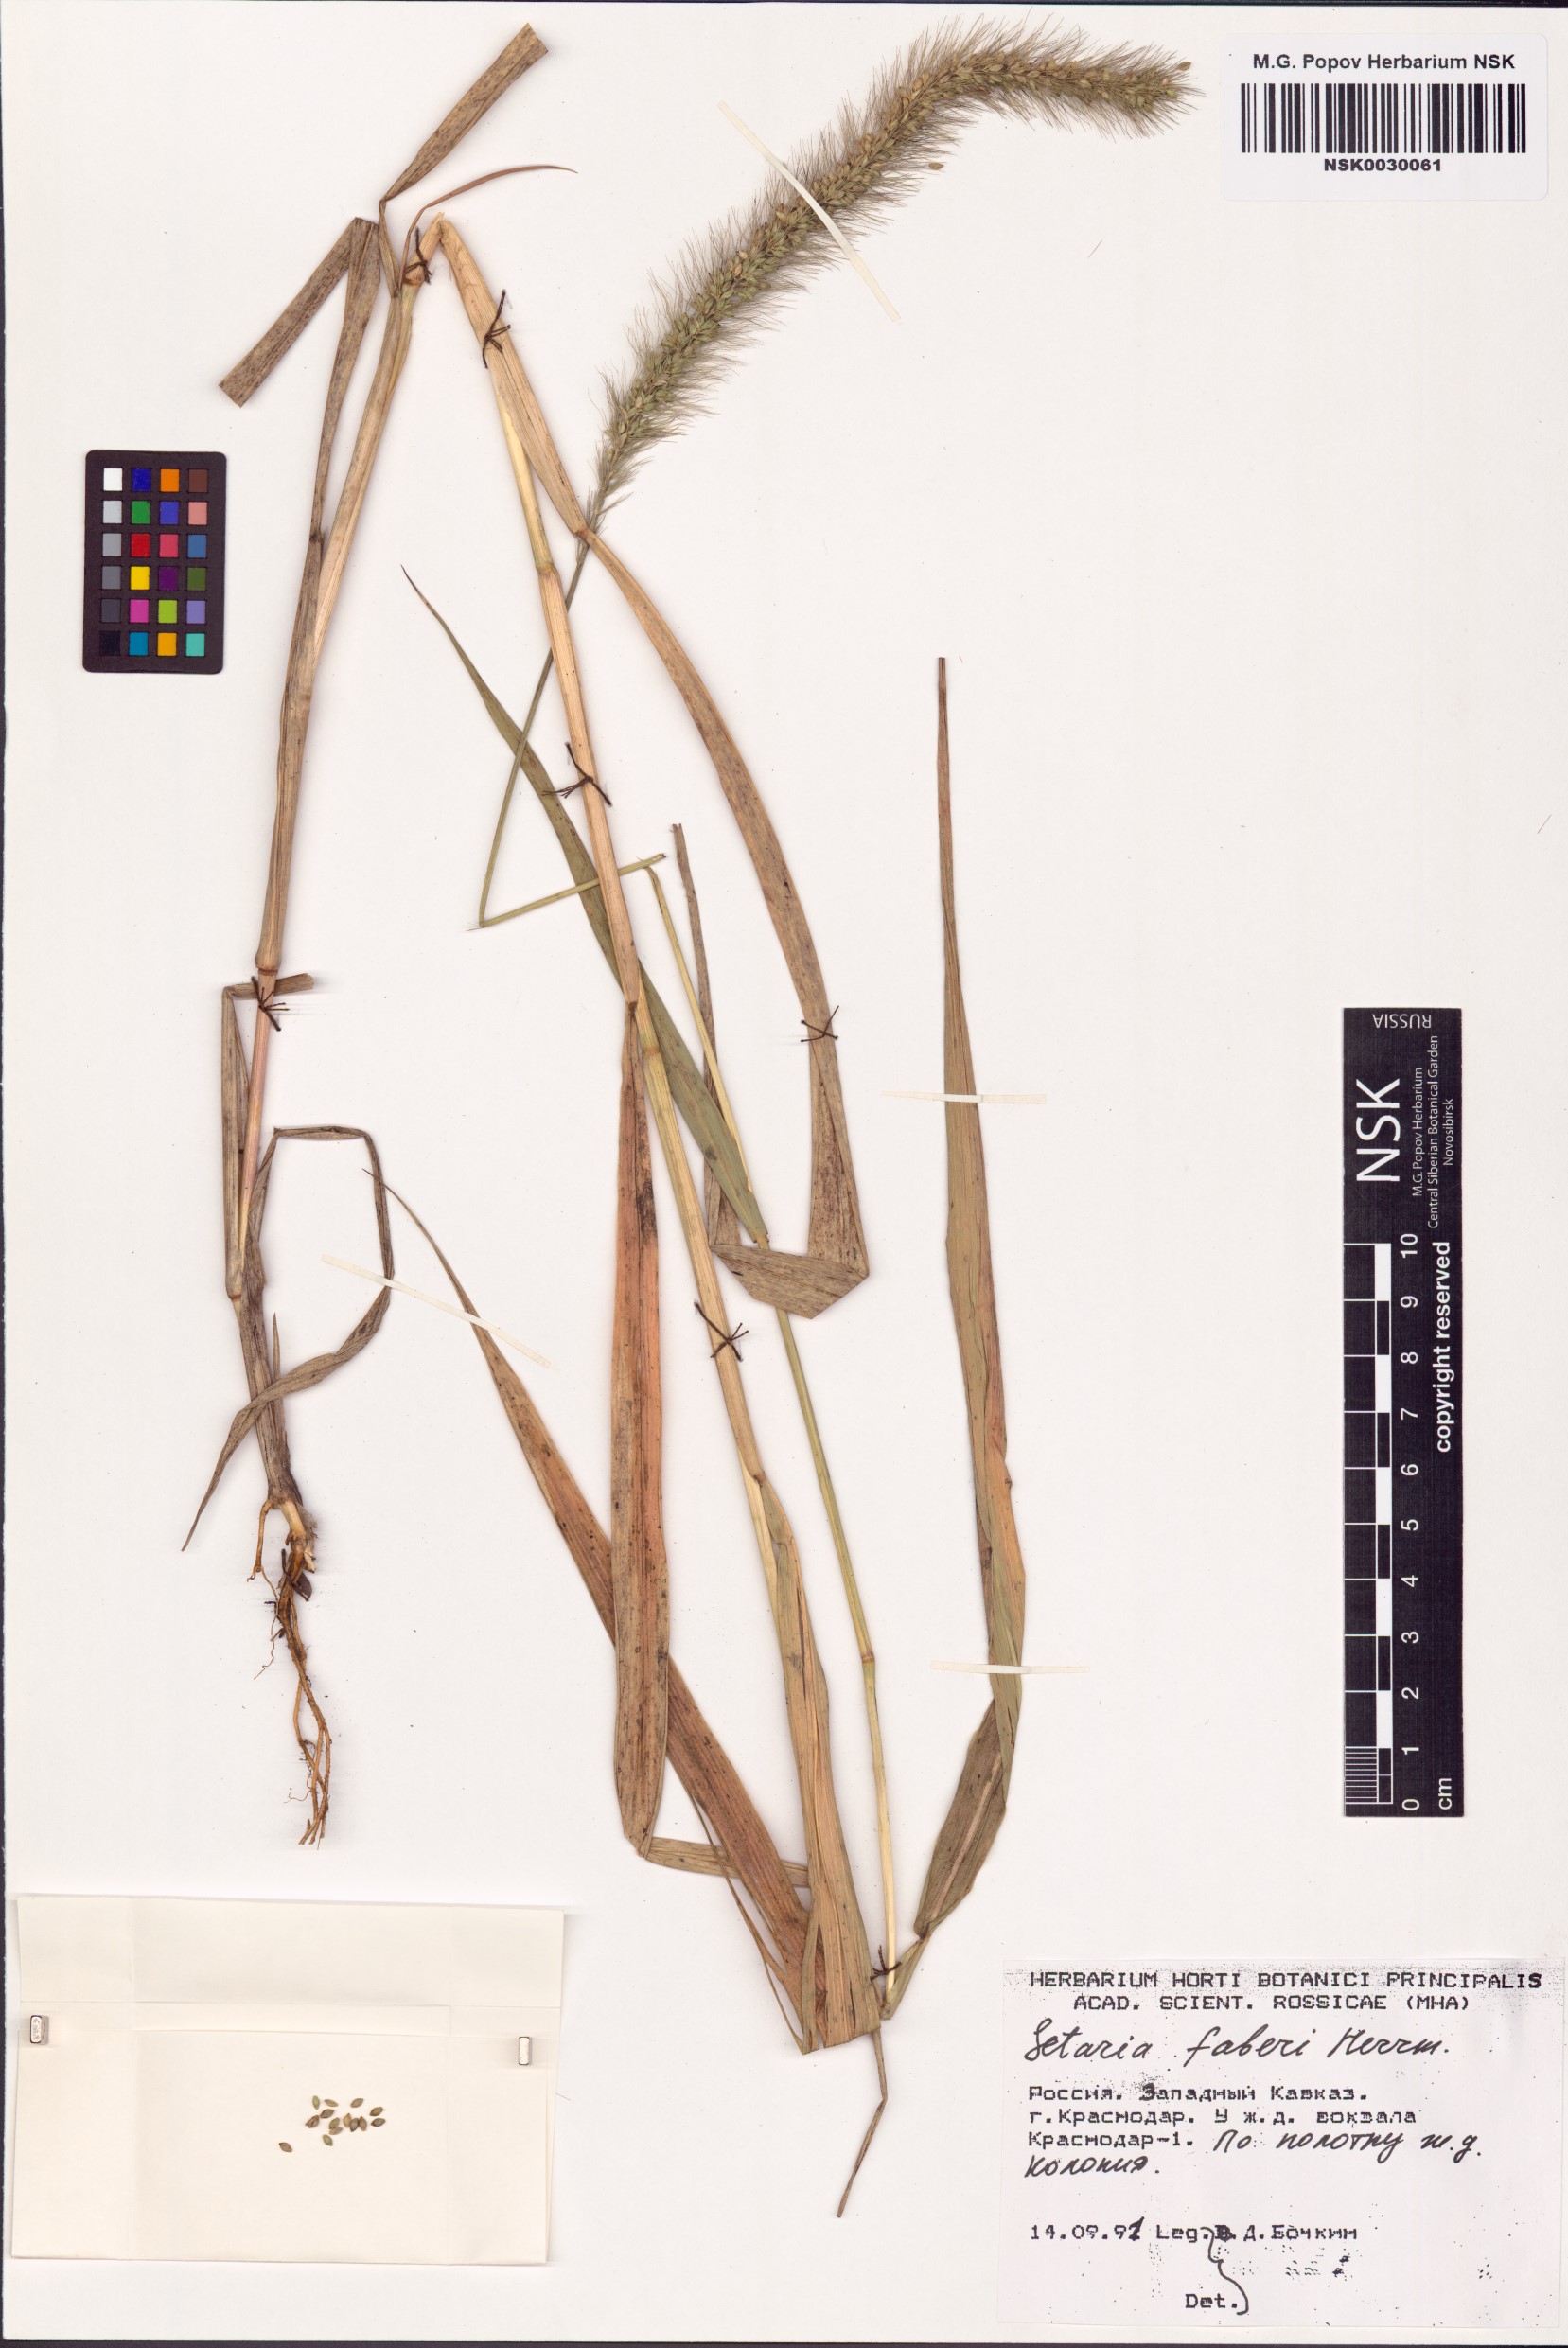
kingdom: Plantae
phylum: Tracheophyta
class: Liliopsida
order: Poales
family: Poaceae
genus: Setaria
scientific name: Setaria faberi
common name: Nodding bristle-grass
